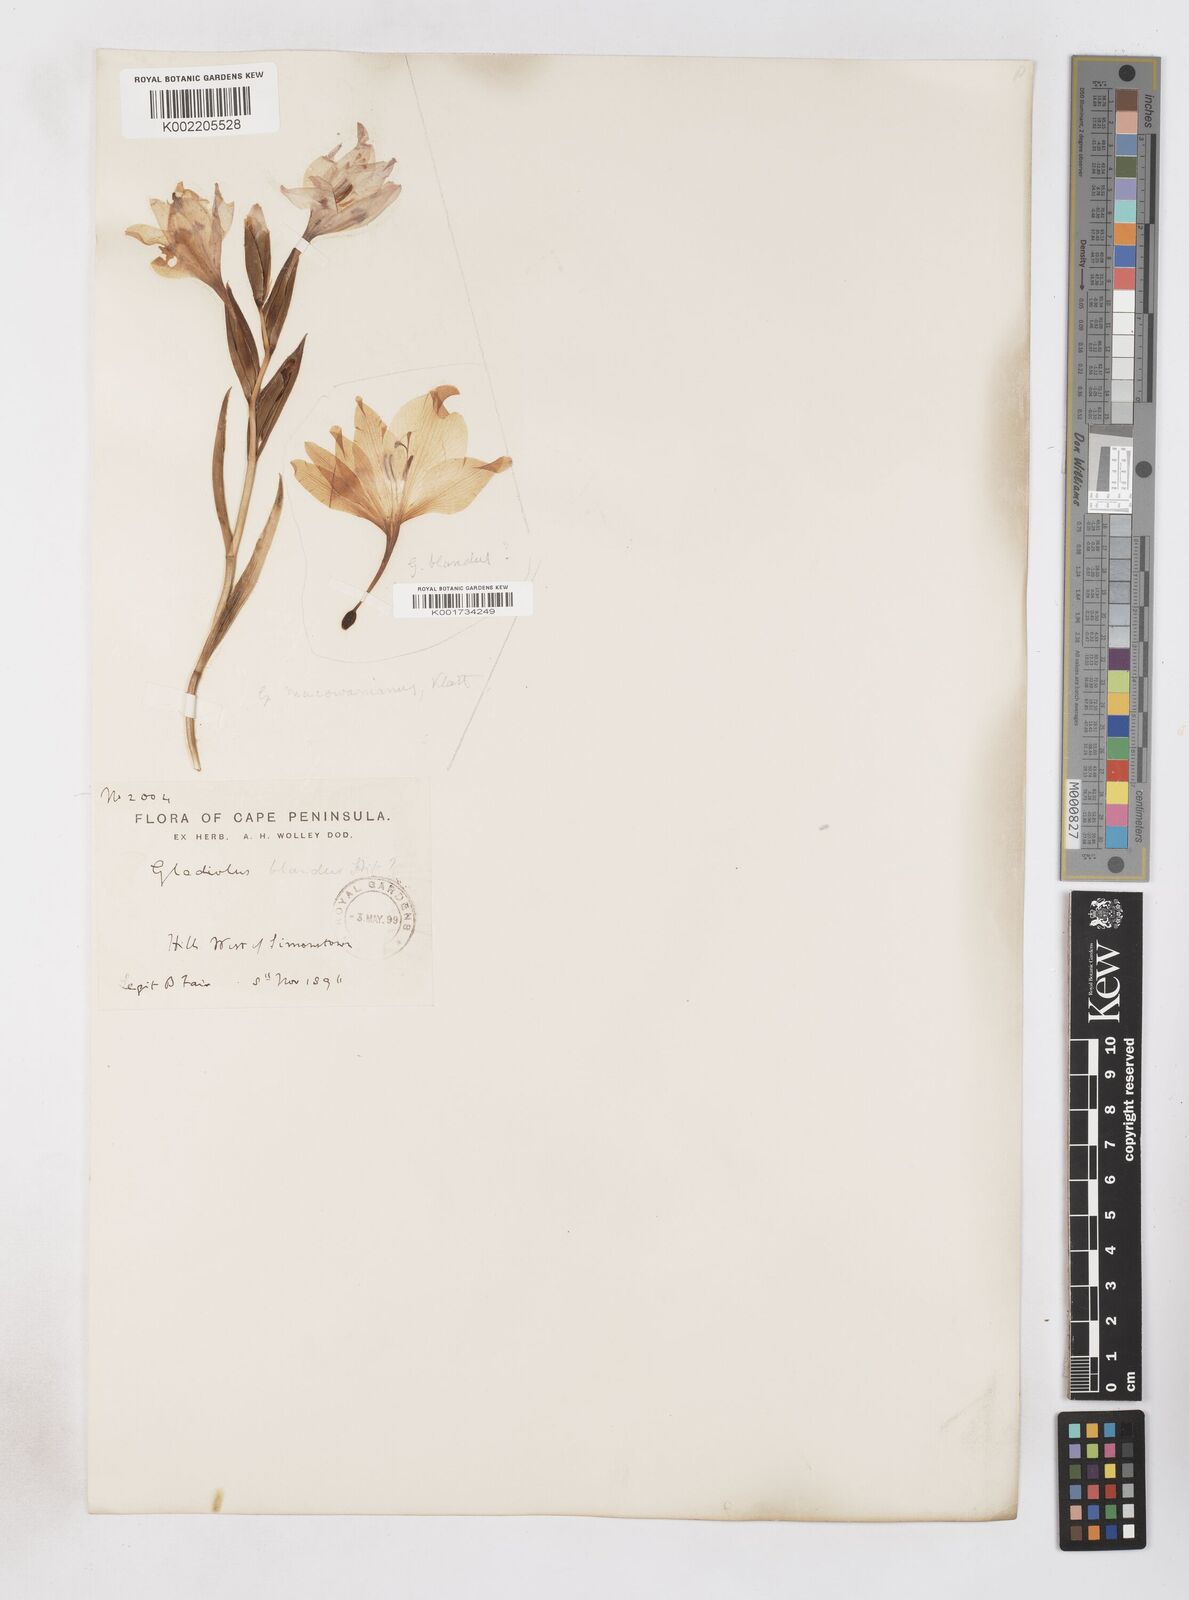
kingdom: Plantae
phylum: Tracheophyta
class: Liliopsida
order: Asparagales
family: Iridaceae
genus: Gladiolus
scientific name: Gladiolus carneus
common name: Painted-lady
